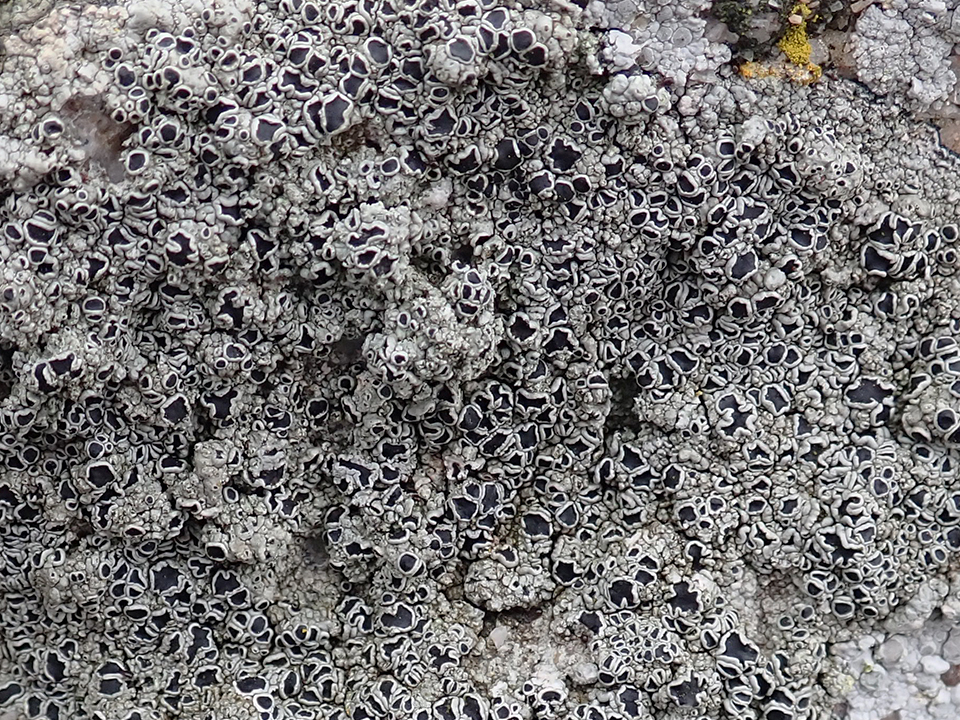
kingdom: Fungi
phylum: Ascomycota
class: Lecanoromycetes
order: Lecanorales
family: Tephromelataceae
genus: Tephromela
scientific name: Tephromela atra
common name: sortfrugtet kantskivelav
